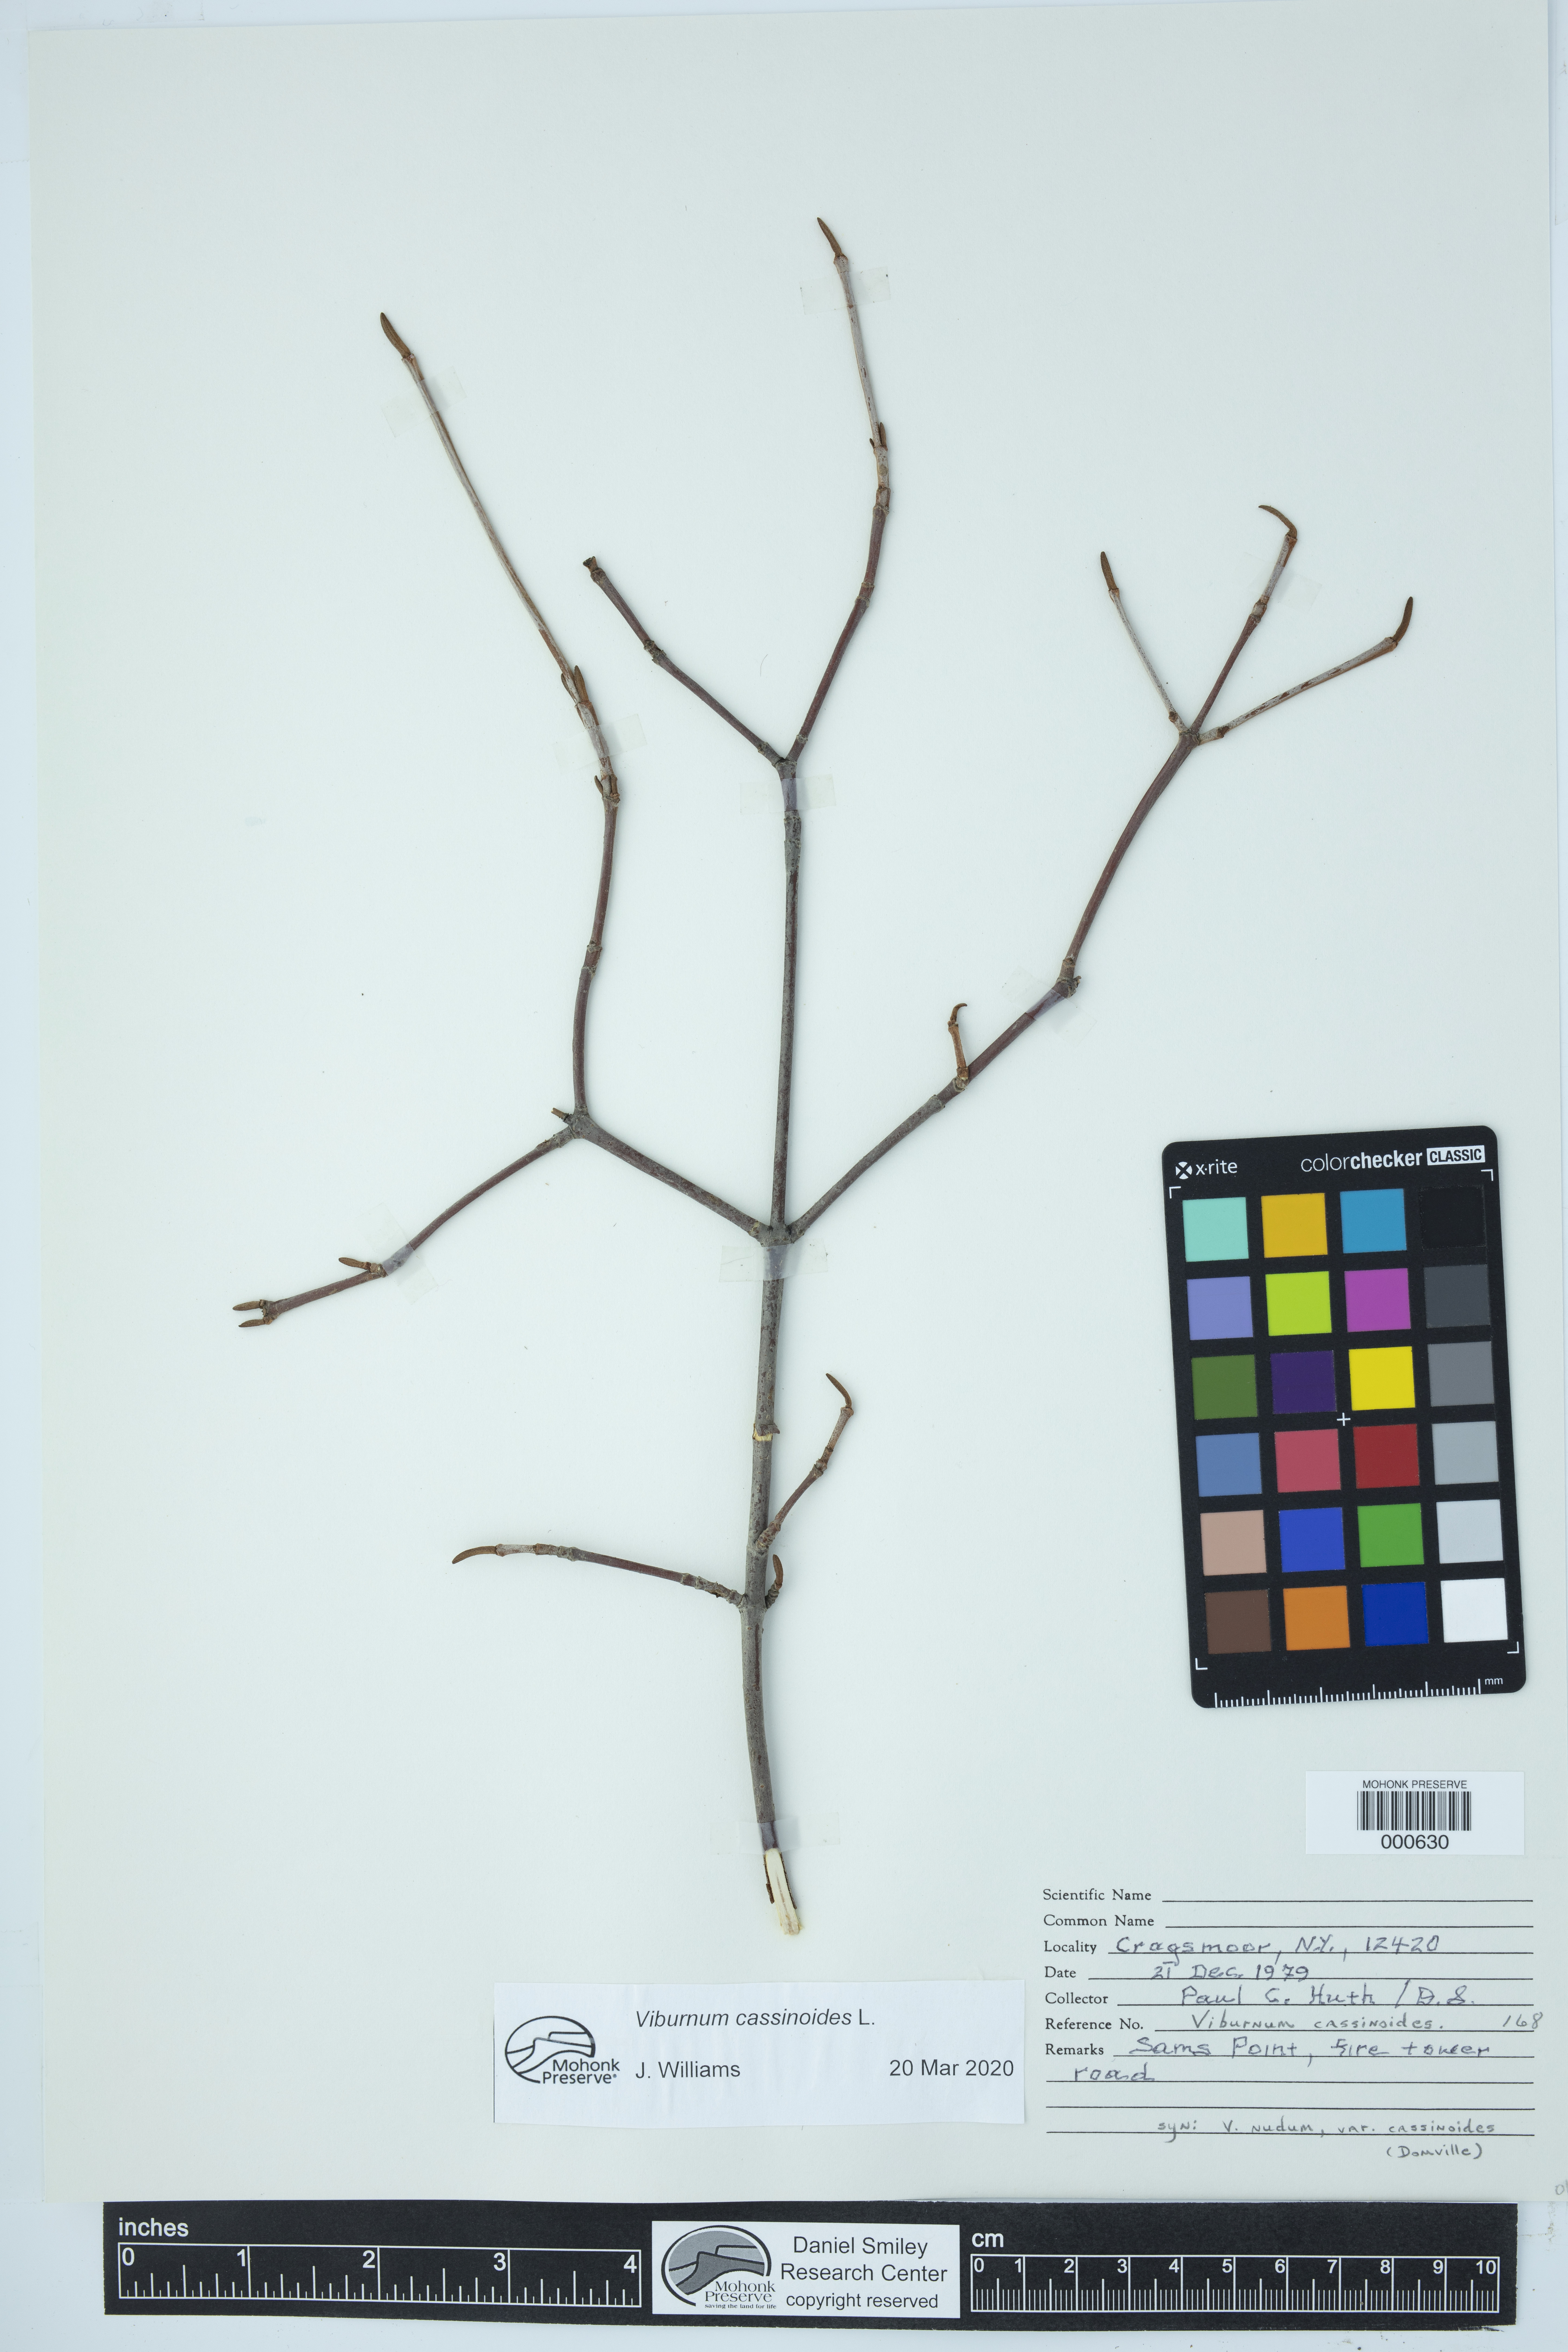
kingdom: Plantae
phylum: Tracheophyta
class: Magnoliopsida
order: Dipsacales
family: Viburnaceae
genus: Viburnum
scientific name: Viburnum nudum
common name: Possum haw
